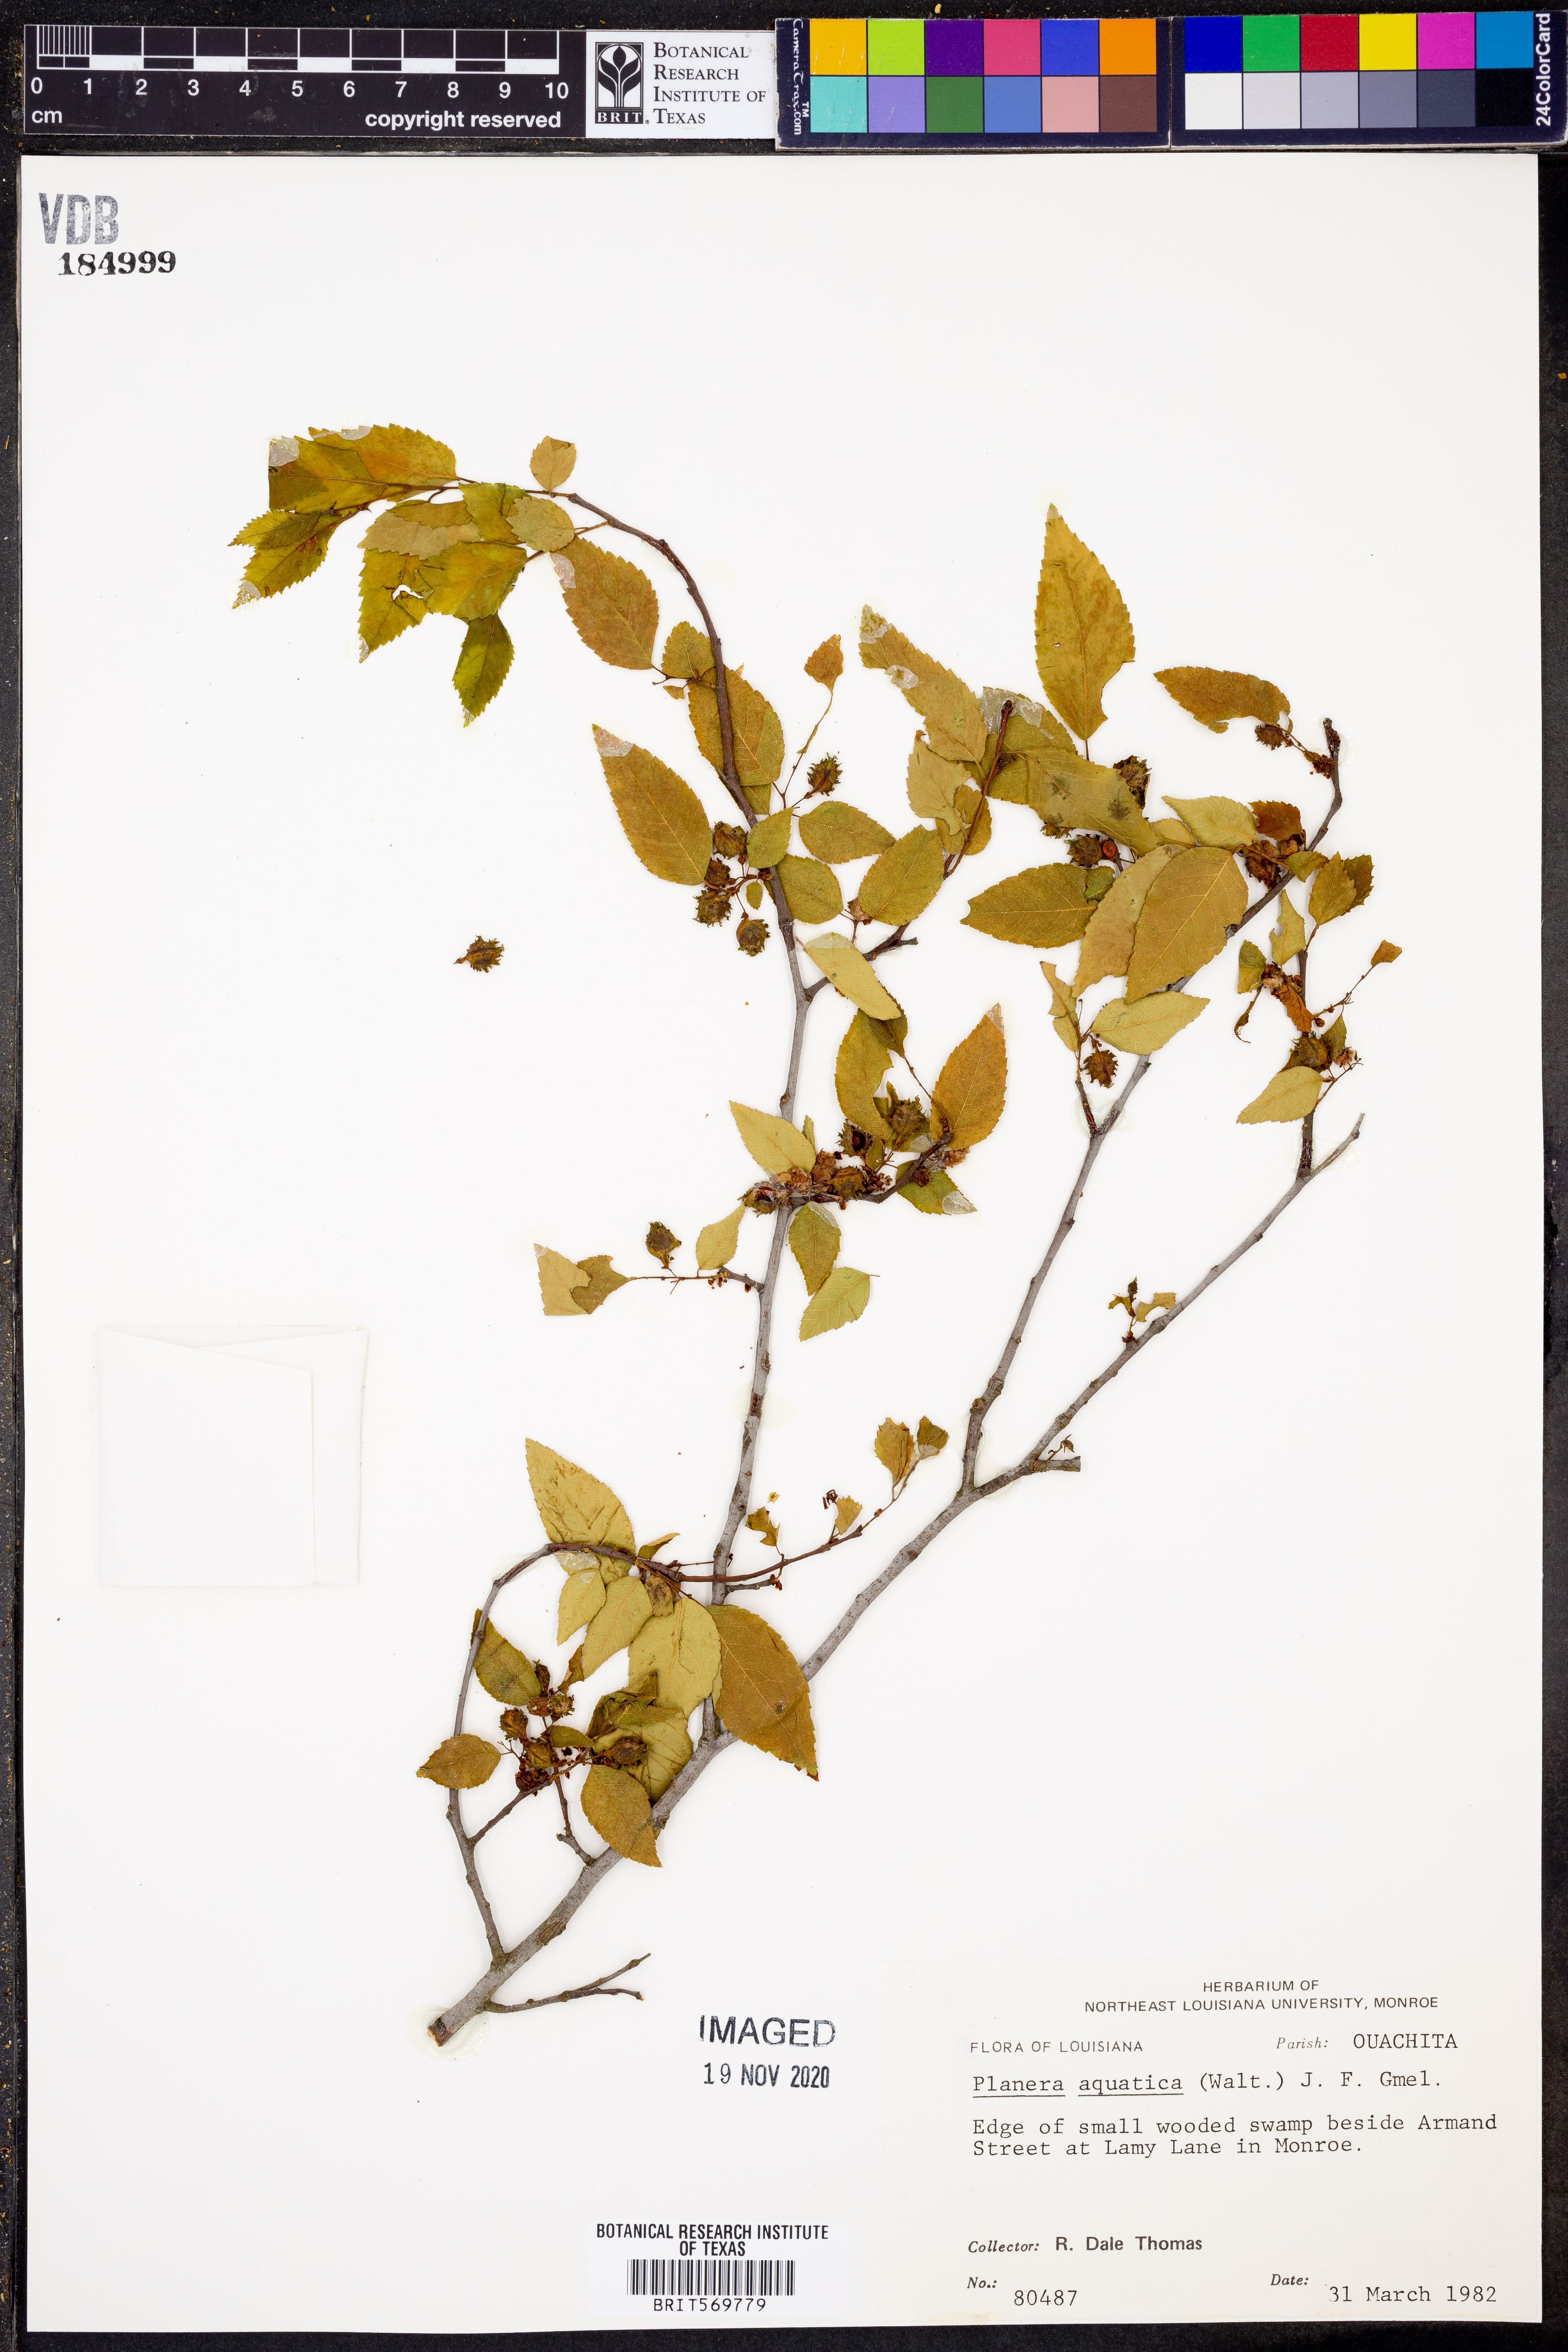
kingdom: Plantae
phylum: Tracheophyta
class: Magnoliopsida
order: Rosales
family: Ulmaceae
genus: Planera
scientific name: Planera aquatica
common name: Water-elm
